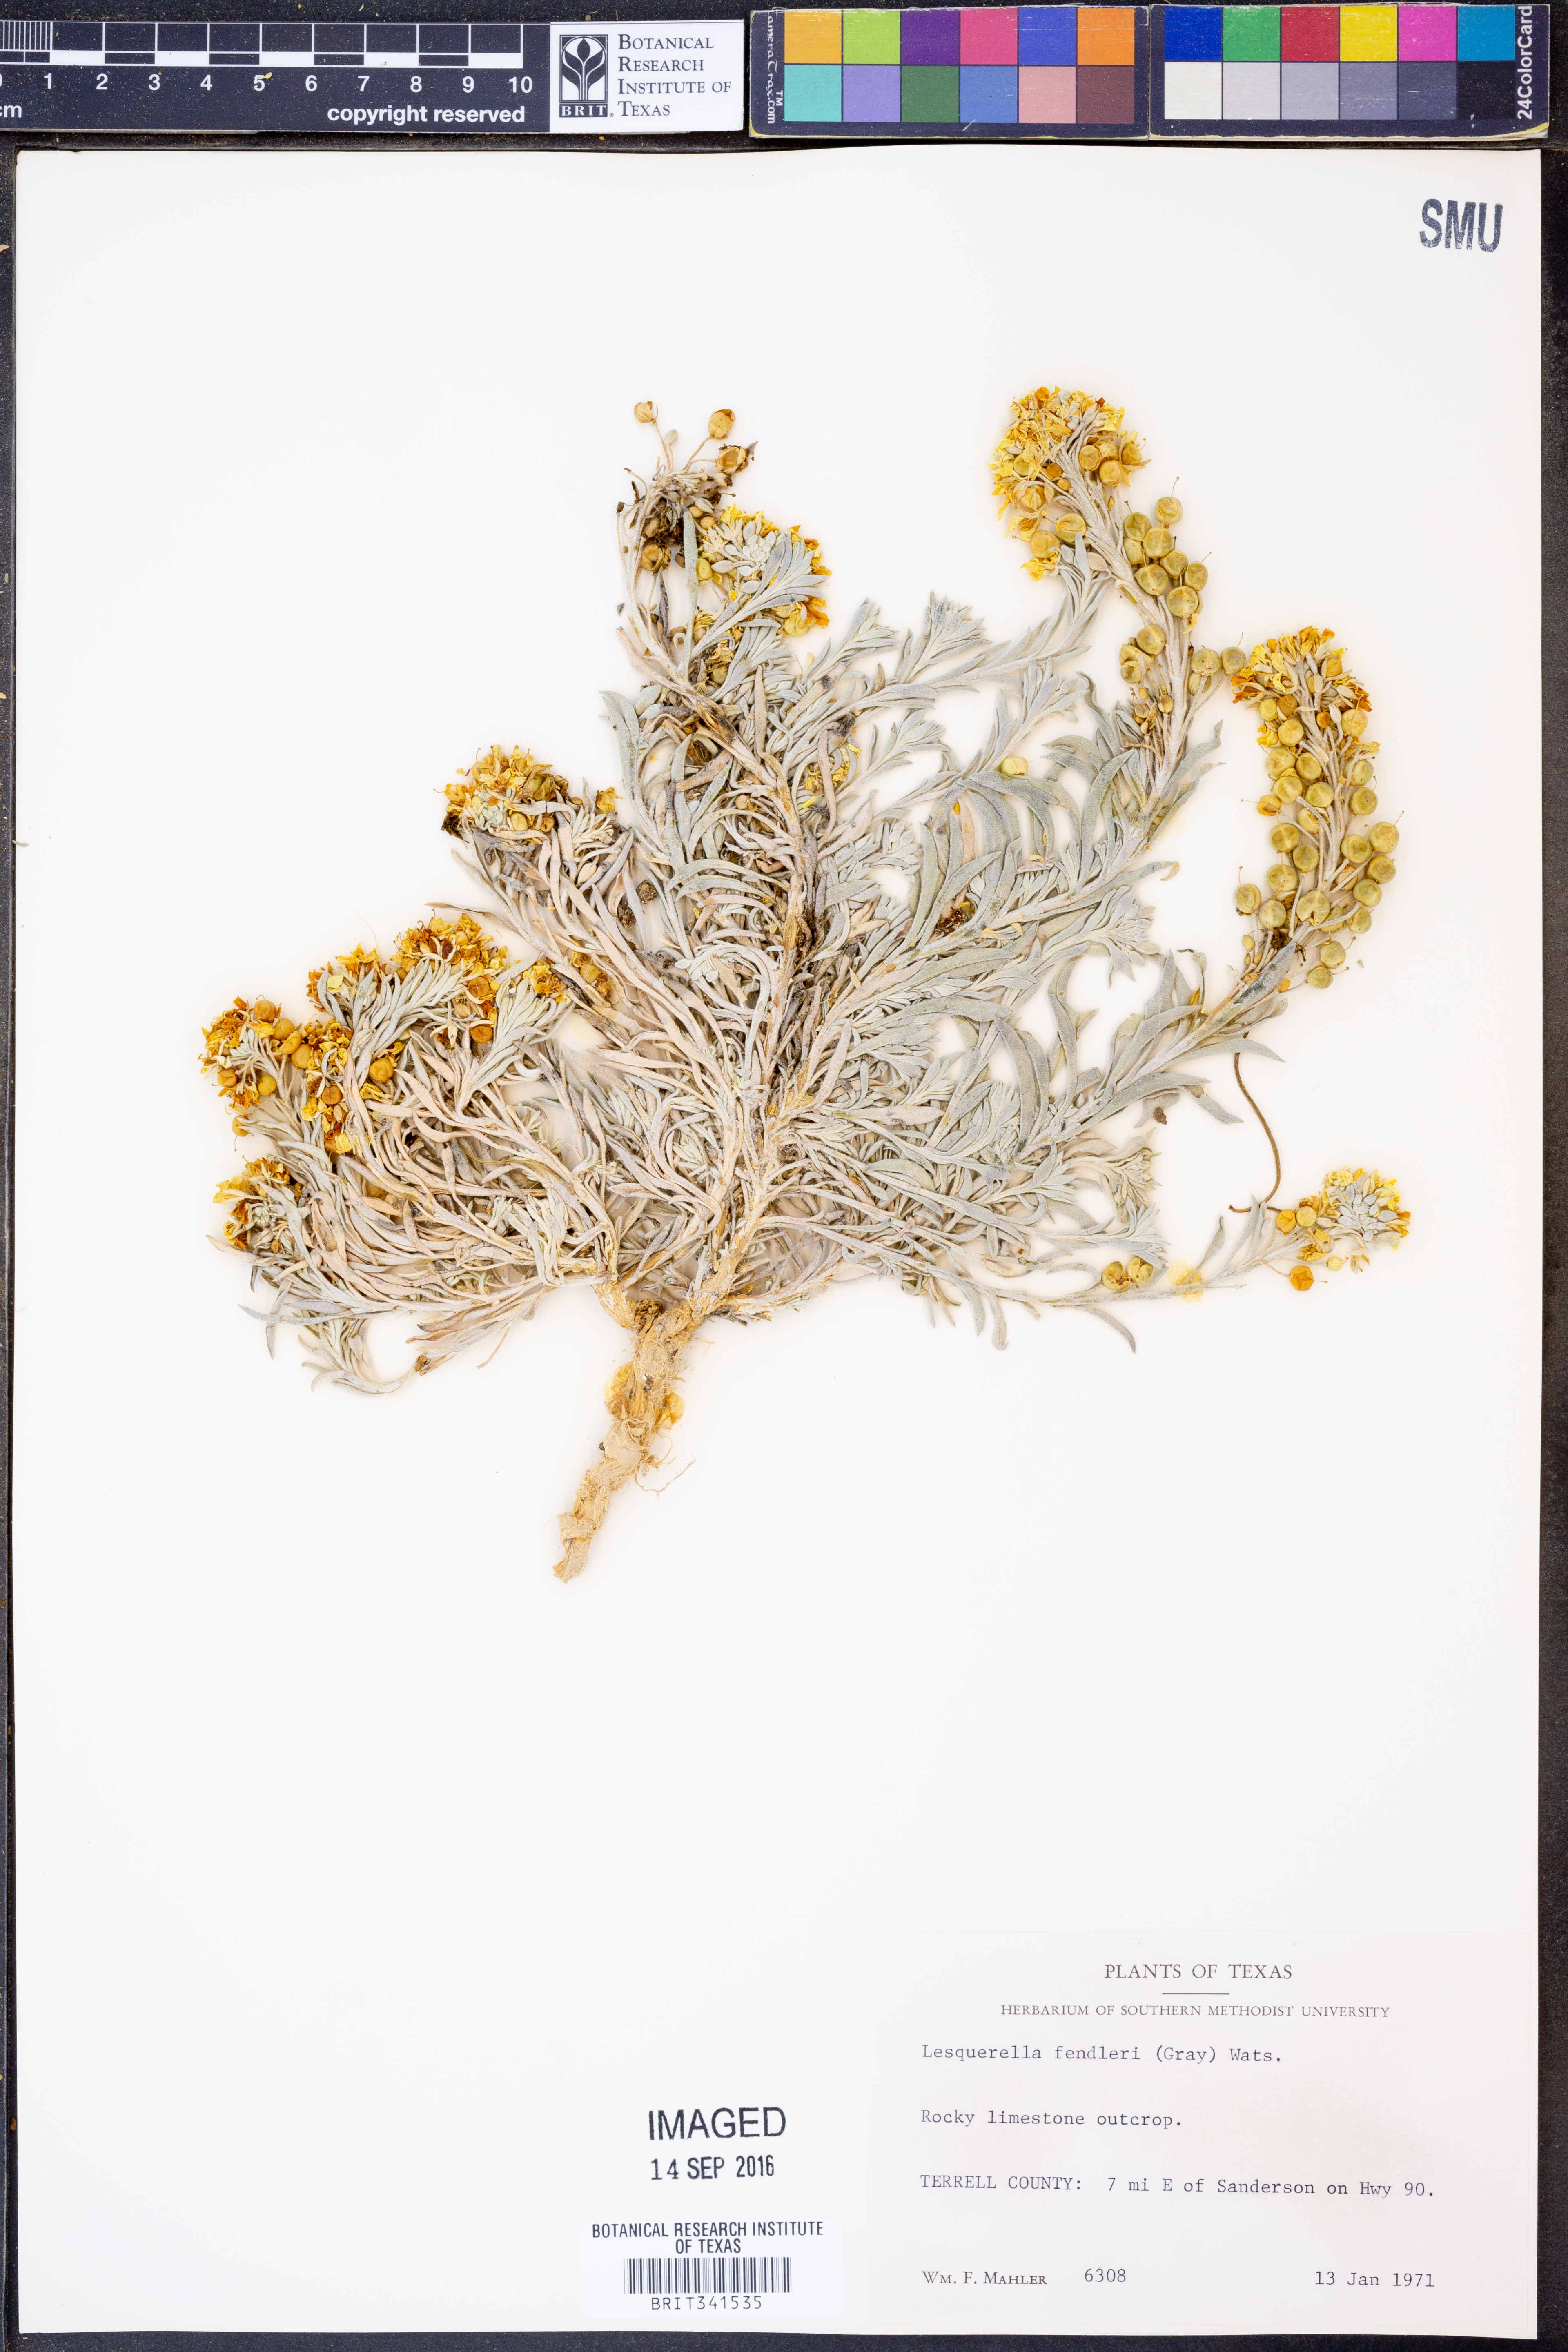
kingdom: Plantae
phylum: Tracheophyta
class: Magnoliopsida
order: Brassicales
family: Brassicaceae
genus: Physaria
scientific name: Physaria fendleri
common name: Fendler's bladderpod
